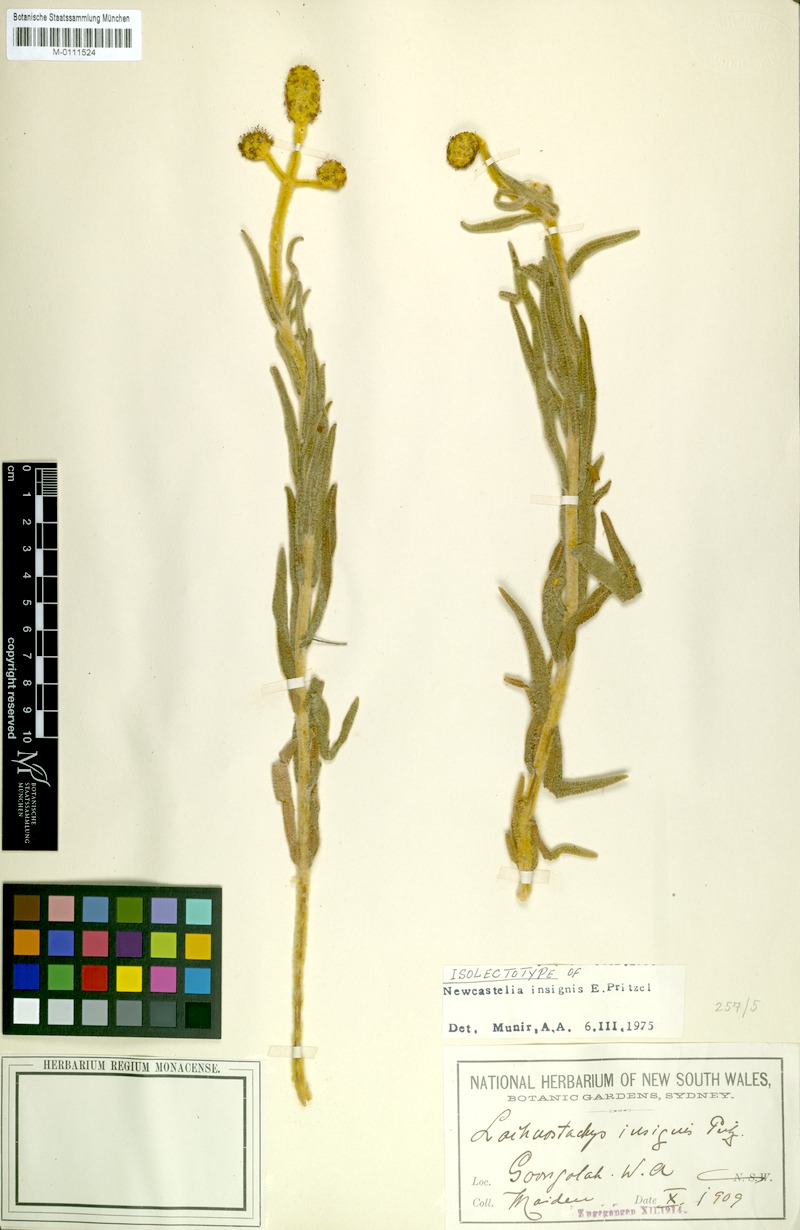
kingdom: Plantae
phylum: Tracheophyta
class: Magnoliopsida
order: Lamiales
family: Lamiaceae
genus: Apatelantha
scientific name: Apatelantha insignis
